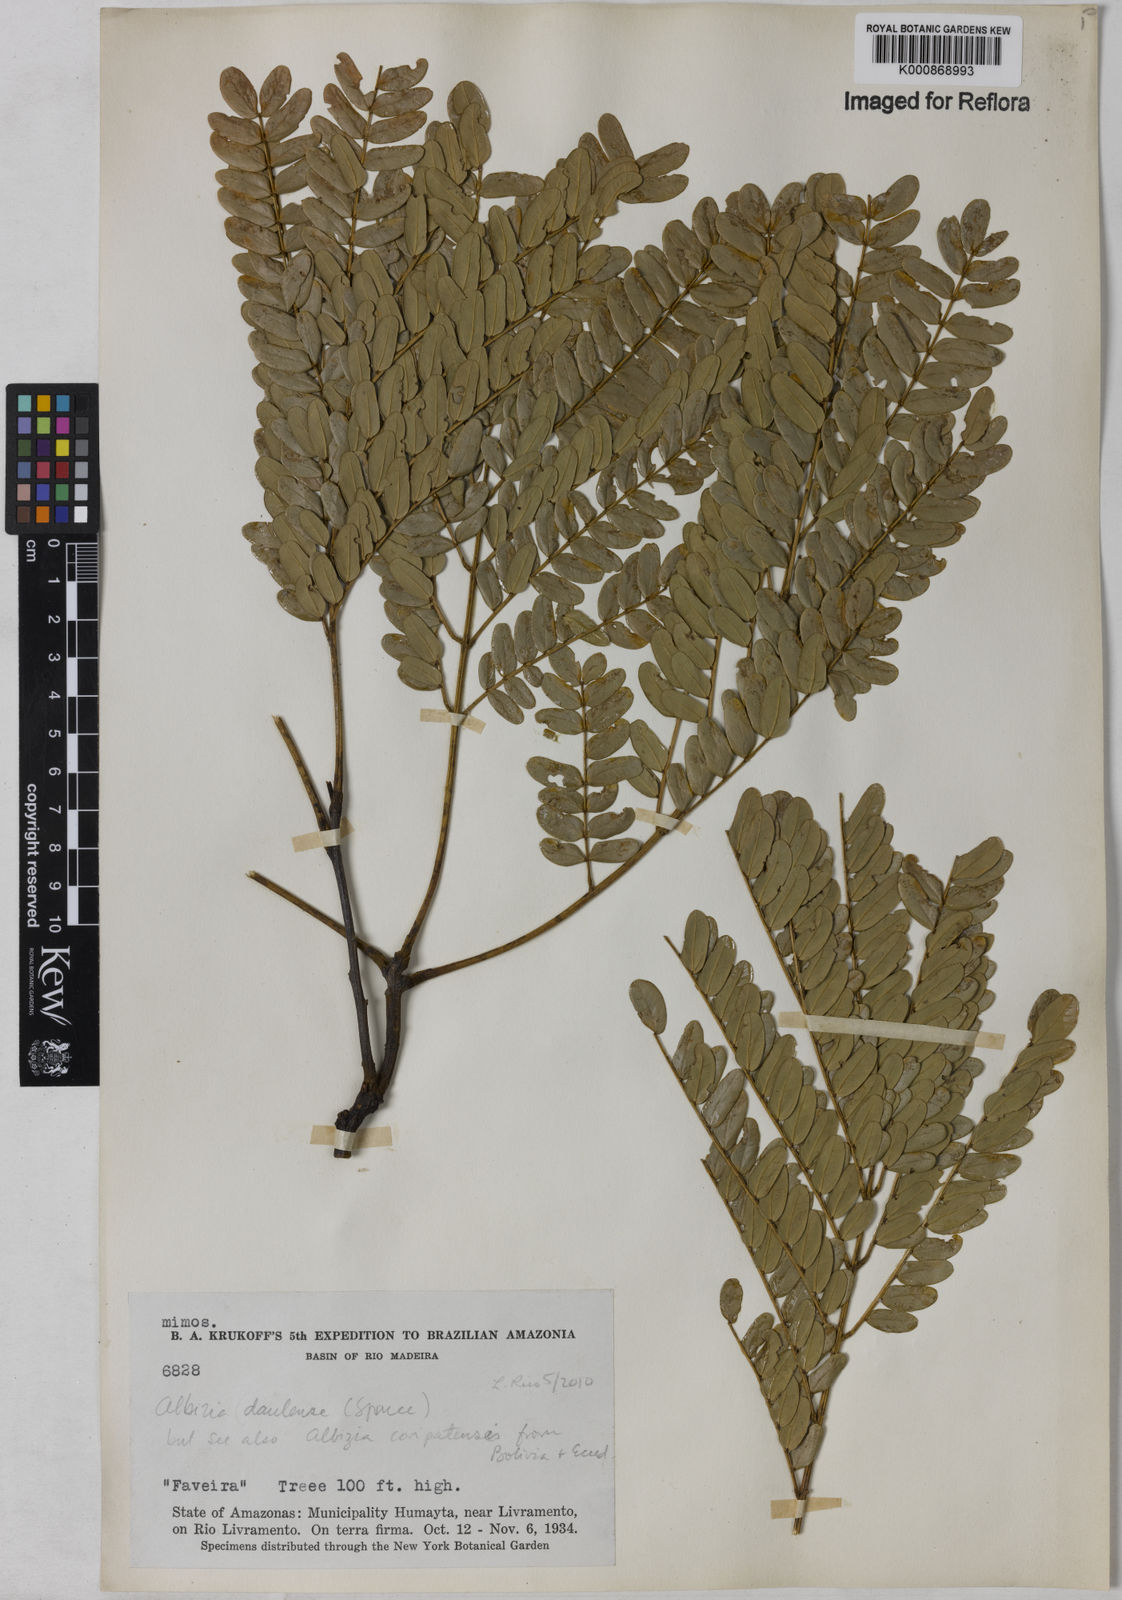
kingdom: Plantae
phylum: Tracheophyta
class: Magnoliopsida
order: Fabales
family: Fabaceae
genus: Albizia
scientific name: Albizia
